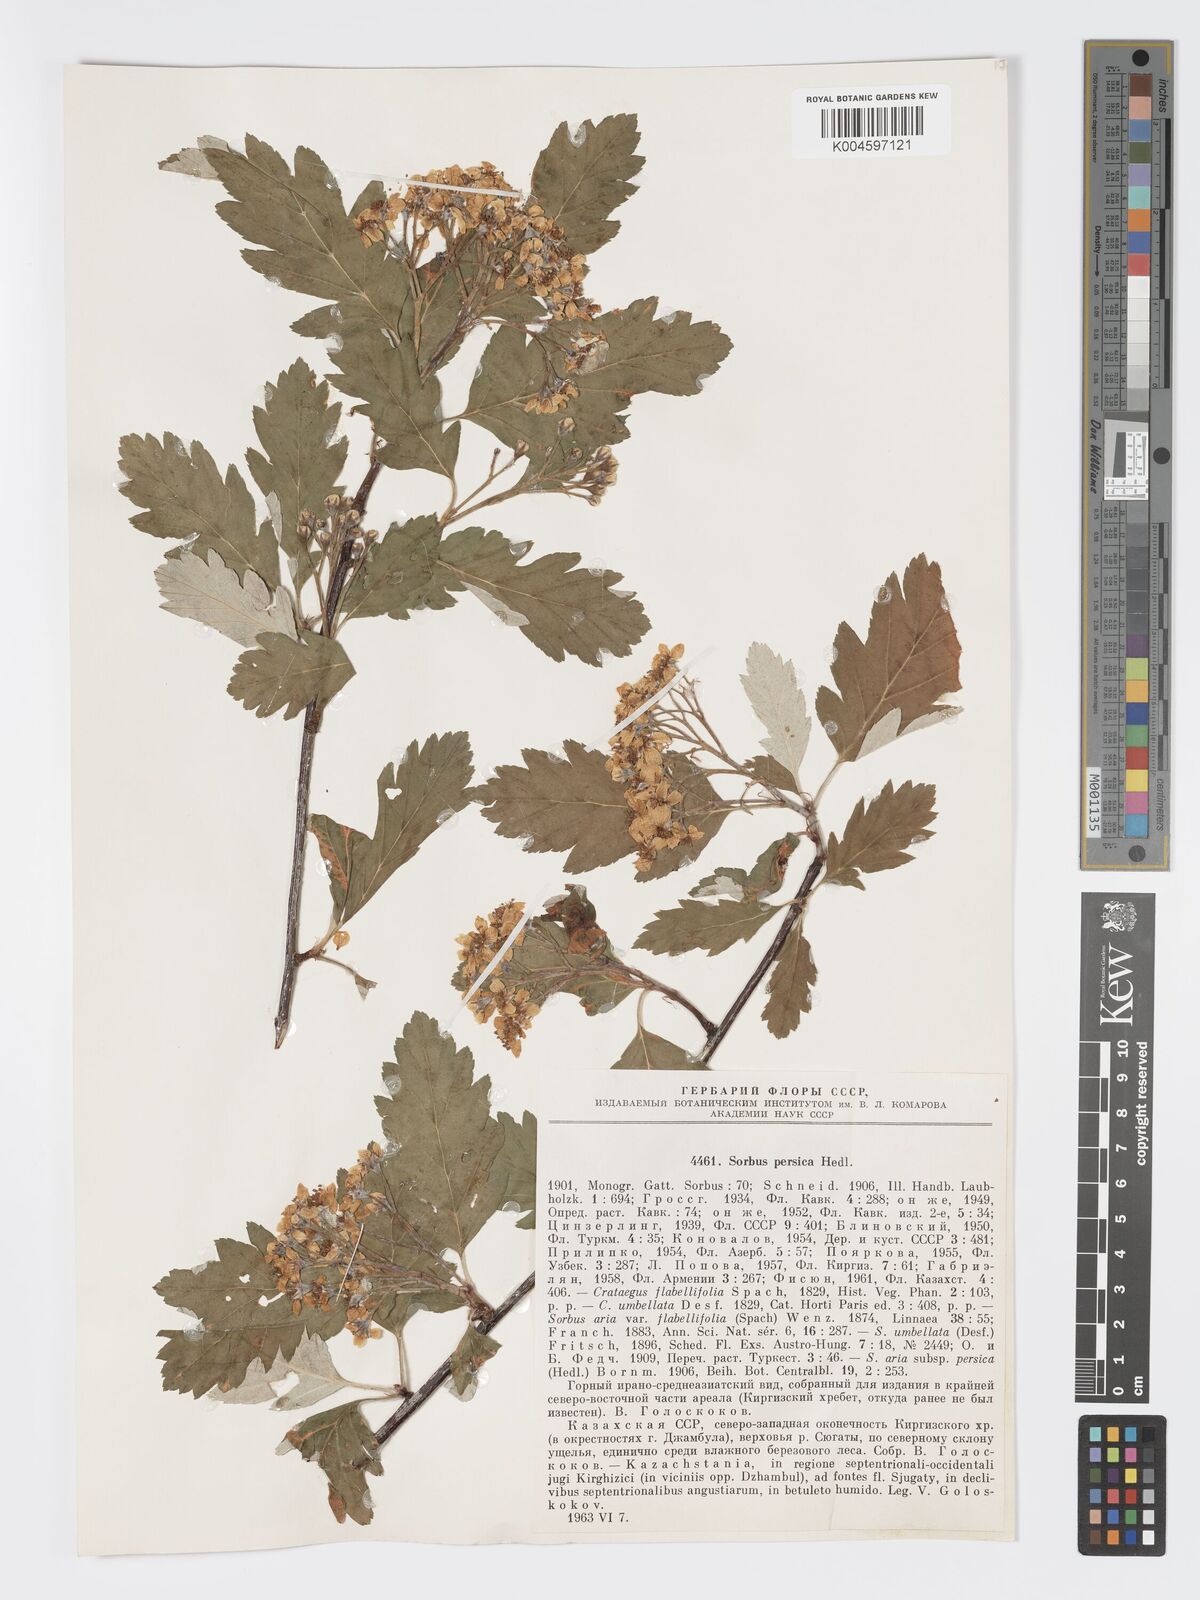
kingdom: Plantae
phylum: Tracheophyta
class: Magnoliopsida
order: Rosales
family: Rosaceae
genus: Hedlundia
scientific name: Hedlundia persica
